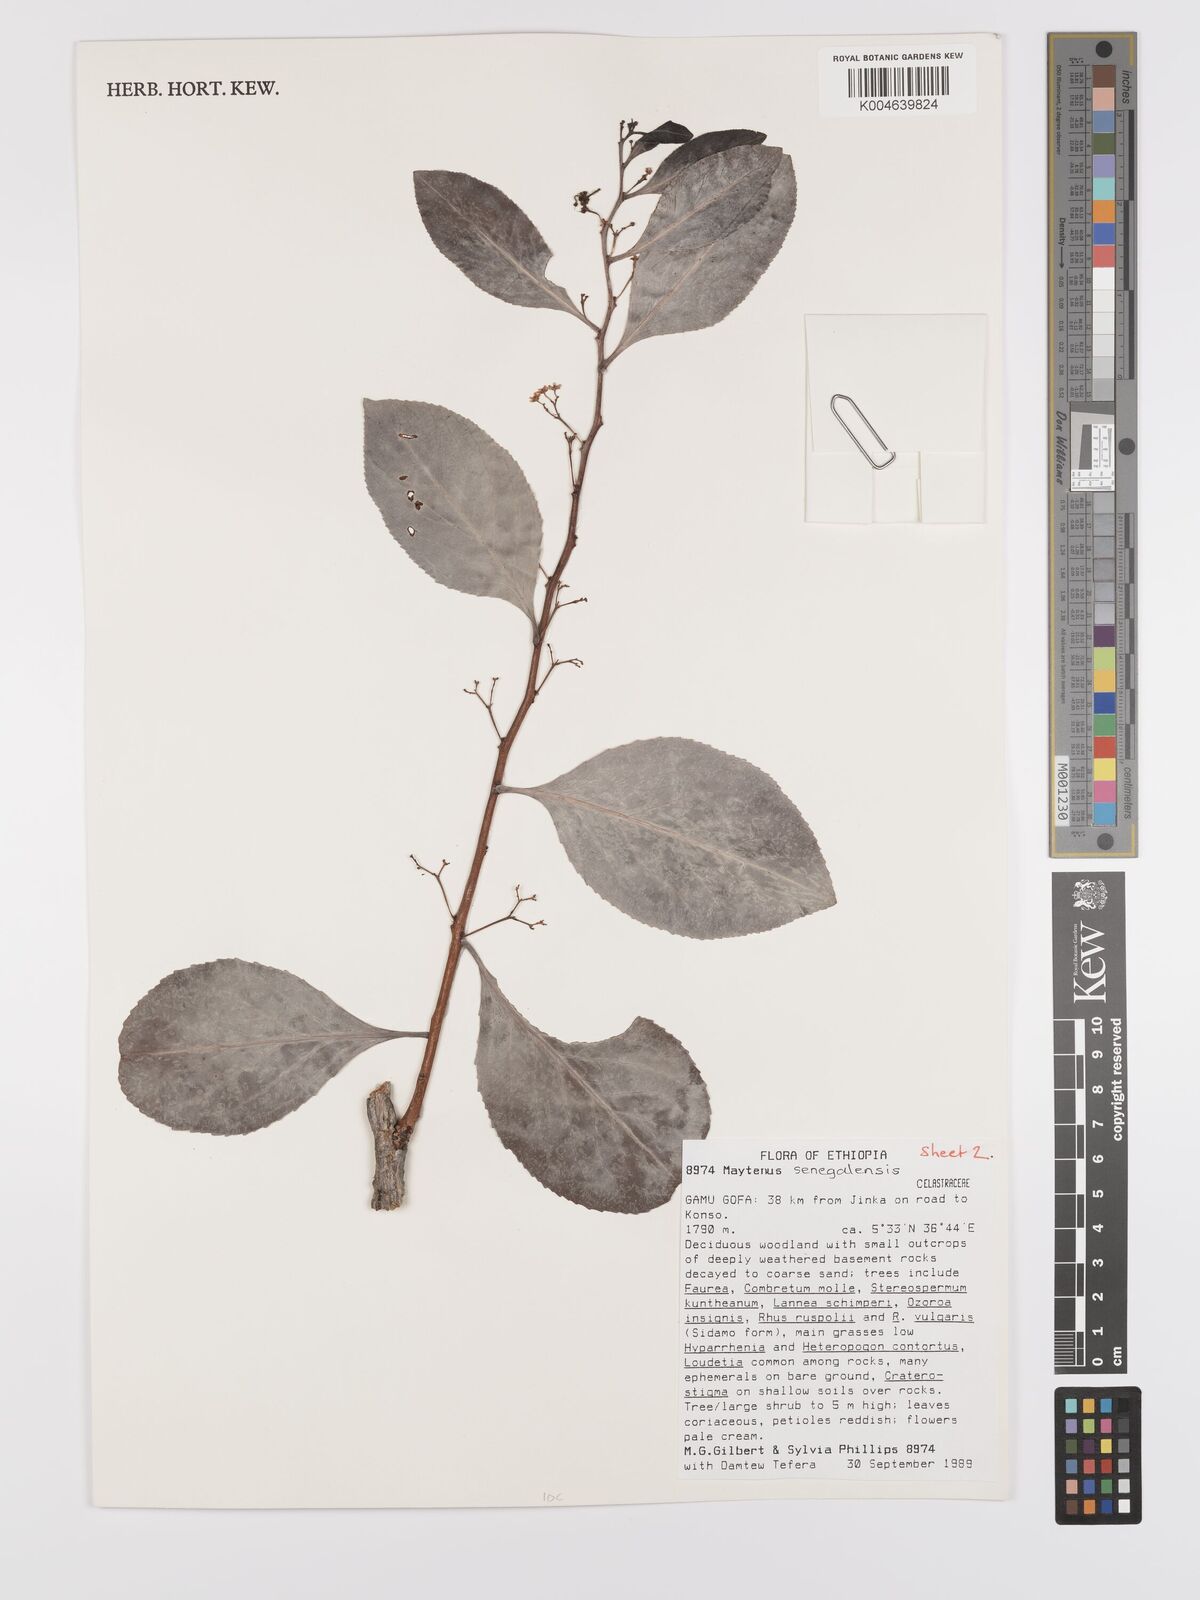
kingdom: Plantae
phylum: Tracheophyta
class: Magnoliopsida
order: Celastrales
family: Celastraceae
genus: Gymnosporia
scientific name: Gymnosporia senegalensis
